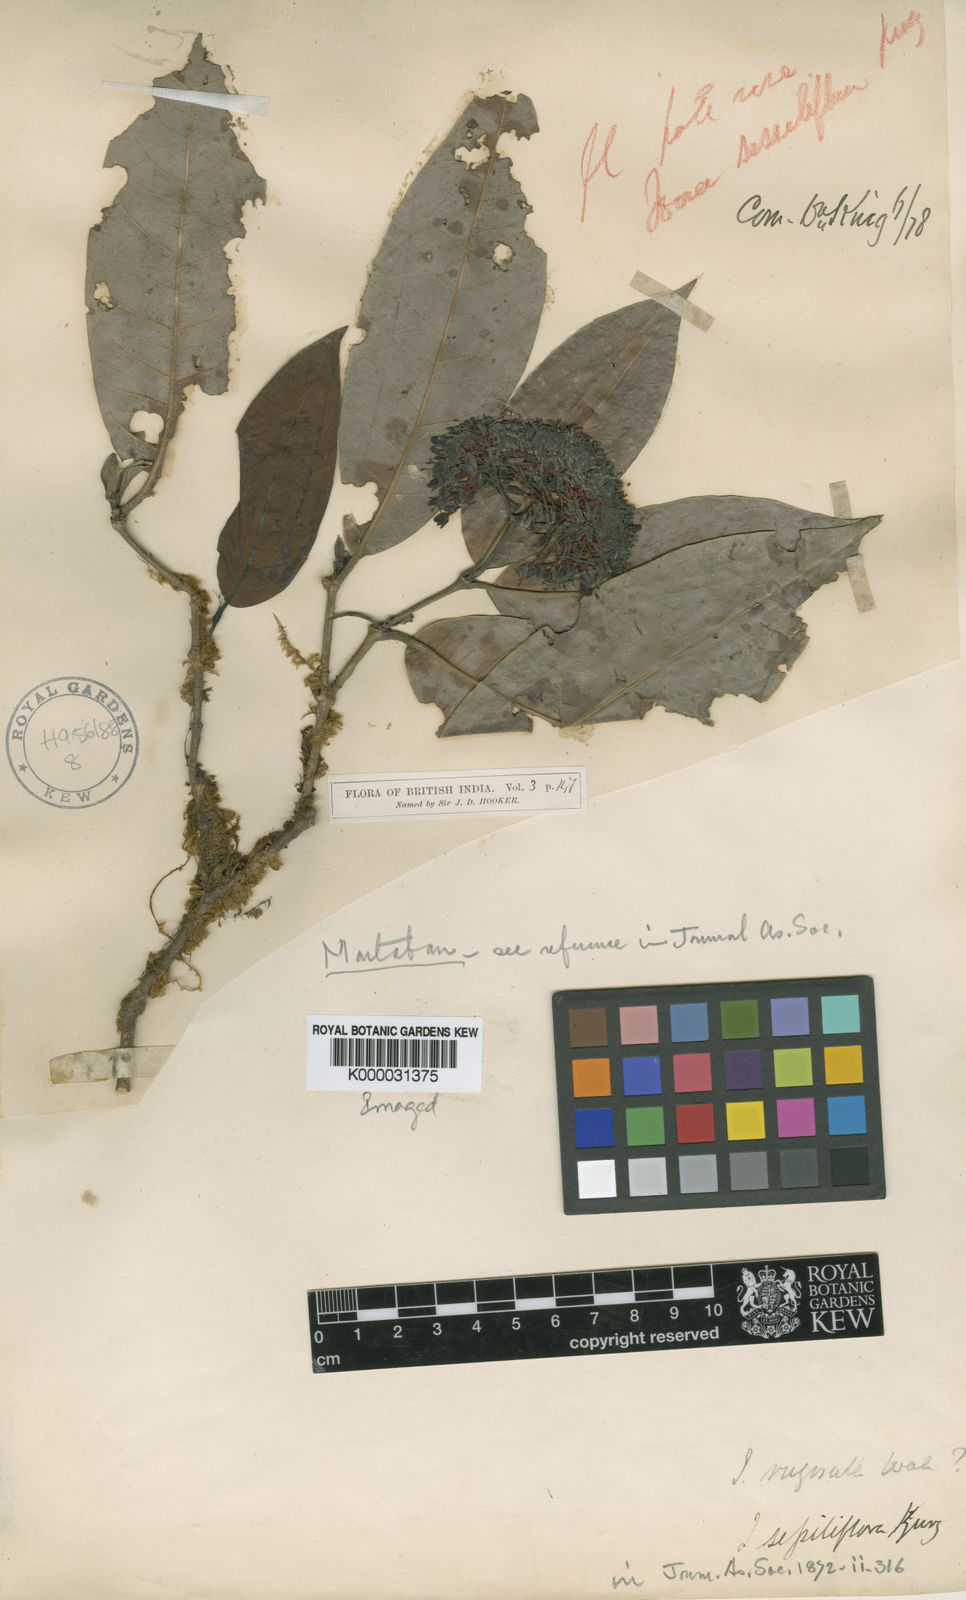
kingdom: Plantae
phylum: Tracheophyta
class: Magnoliopsida
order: Gentianales
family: Rubiaceae
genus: Ixora
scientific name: Ixora rugulosa
